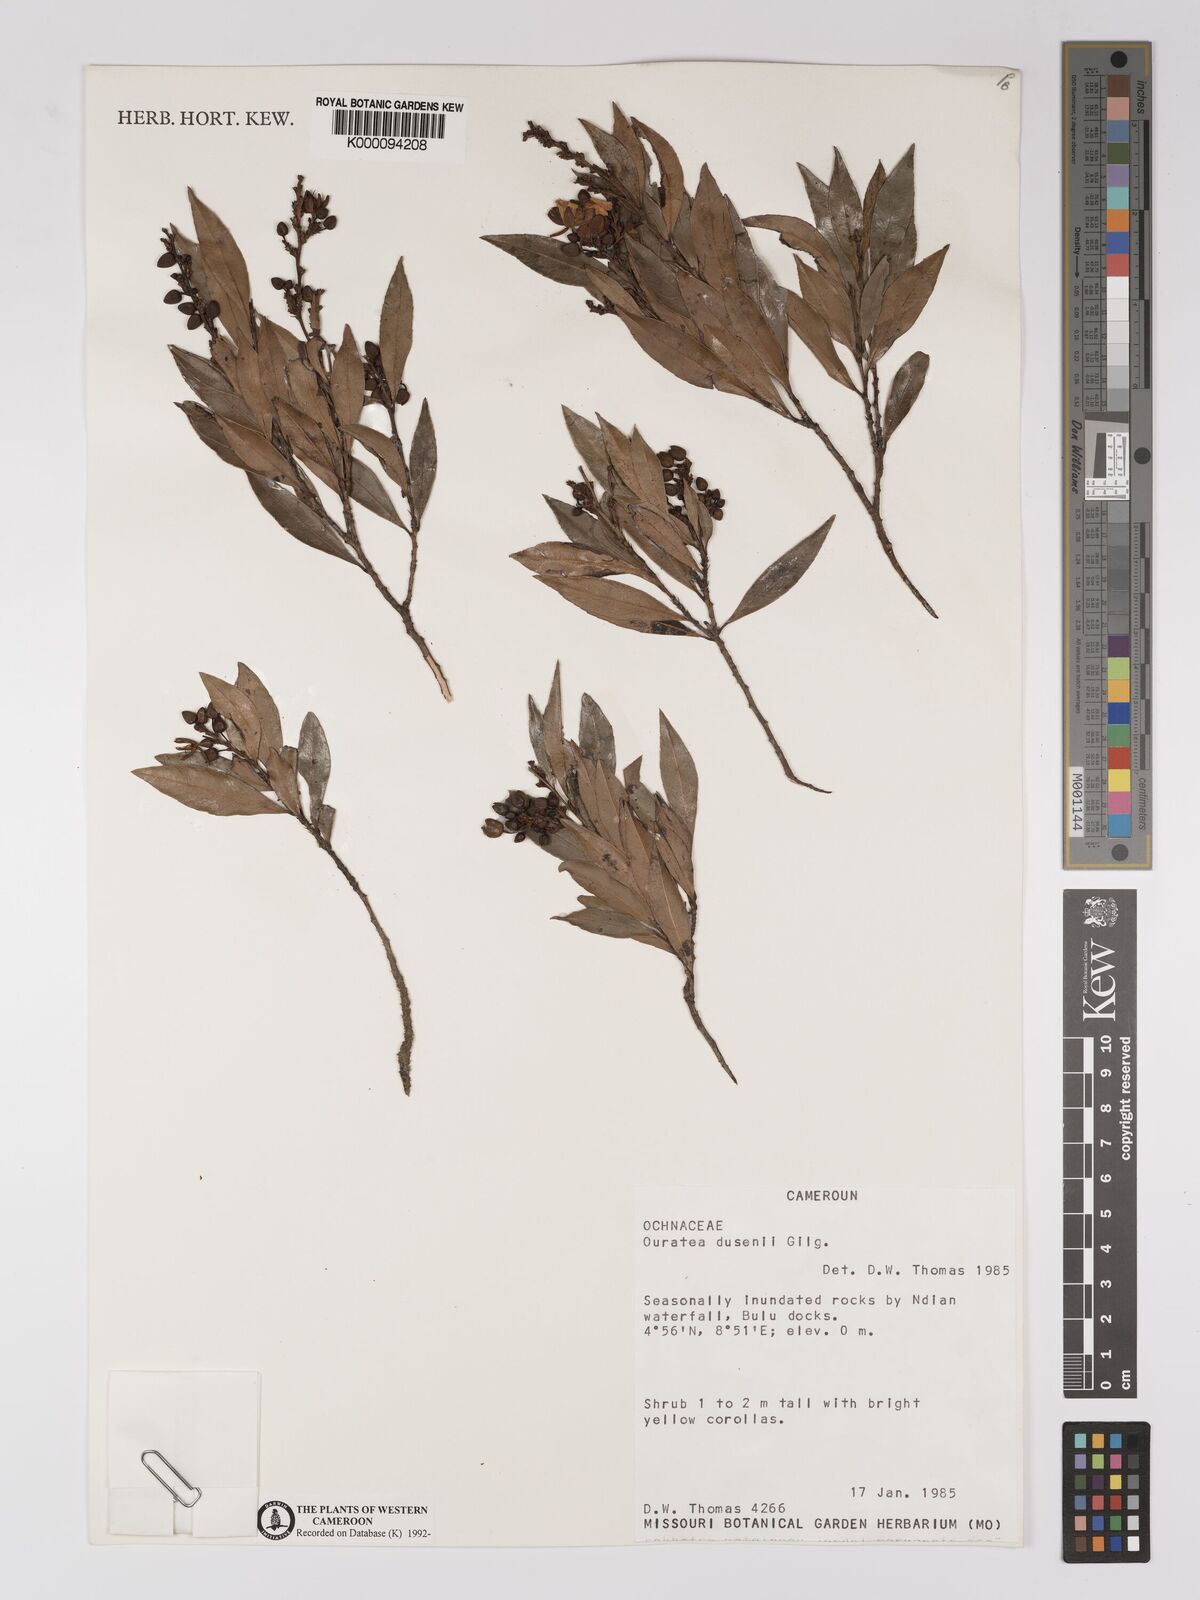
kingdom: Plantae
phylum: Tracheophyta
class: Magnoliopsida
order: Malpighiales
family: Ochnaceae
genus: Campylospermum
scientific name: Campylospermum dusenii
